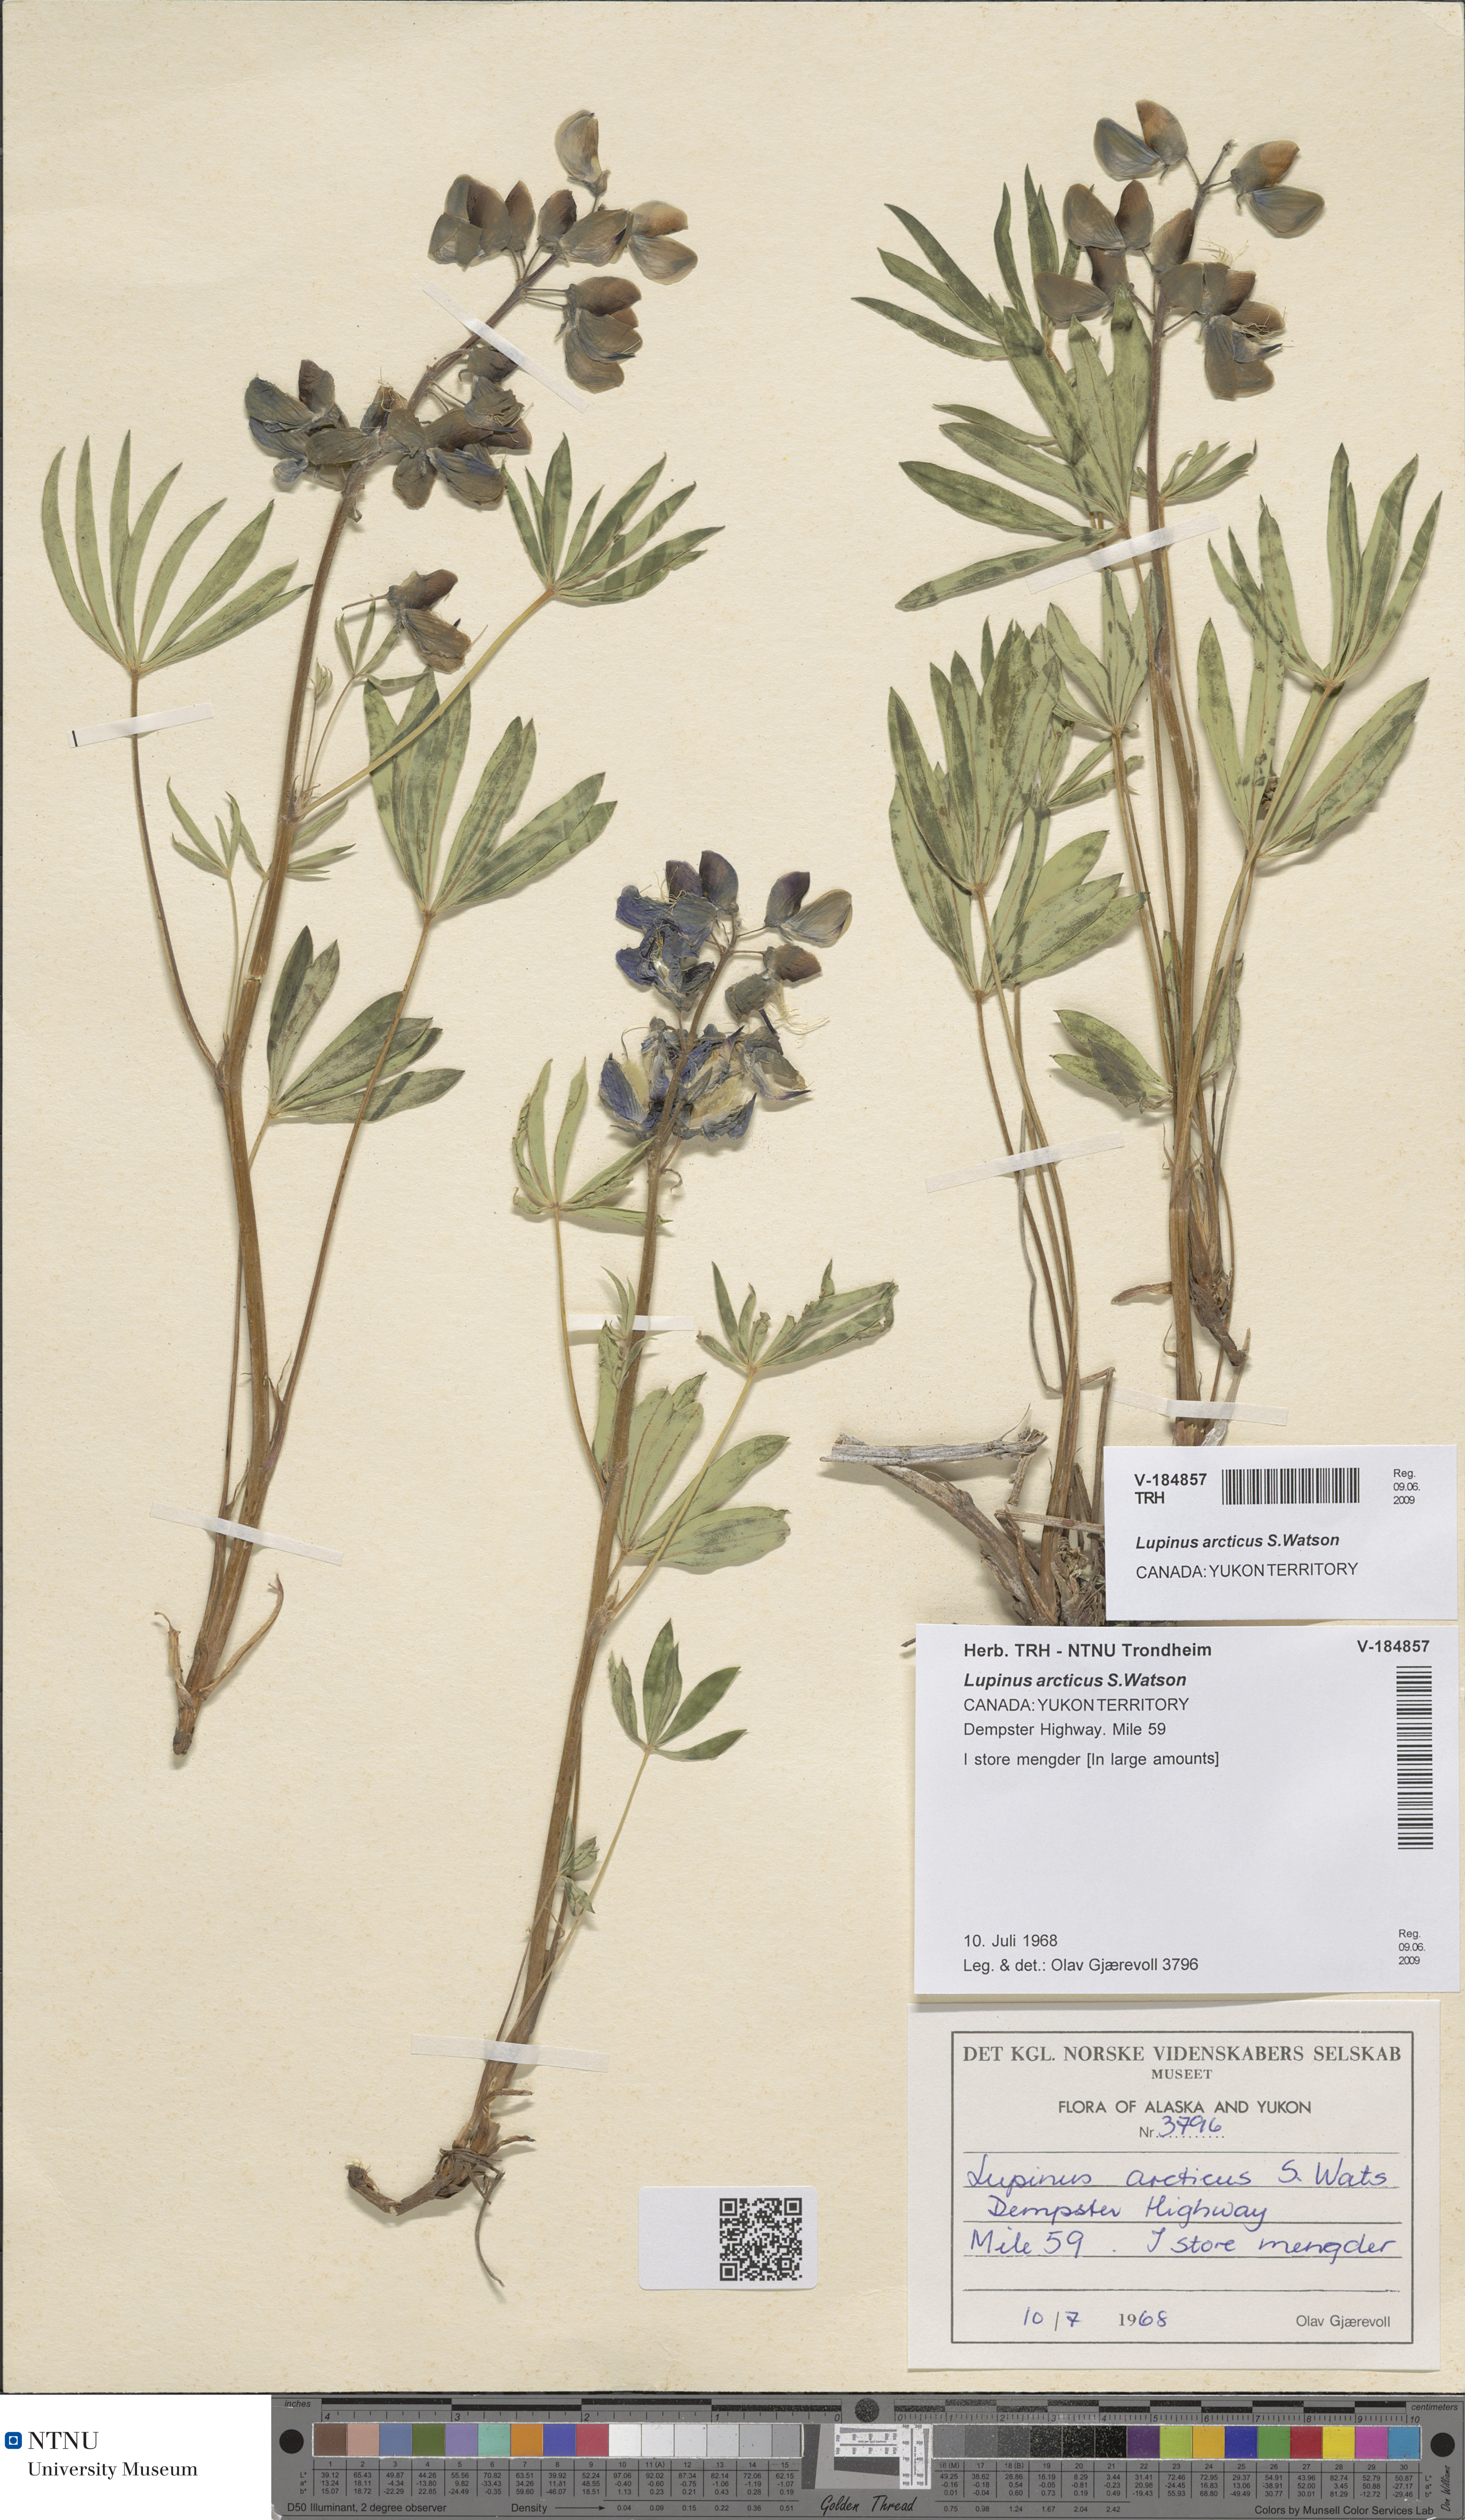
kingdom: Plantae
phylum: Tracheophyta
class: Magnoliopsida
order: Fabales
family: Fabaceae
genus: Lupinus
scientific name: Lupinus arcticus
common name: Arctic lupine
